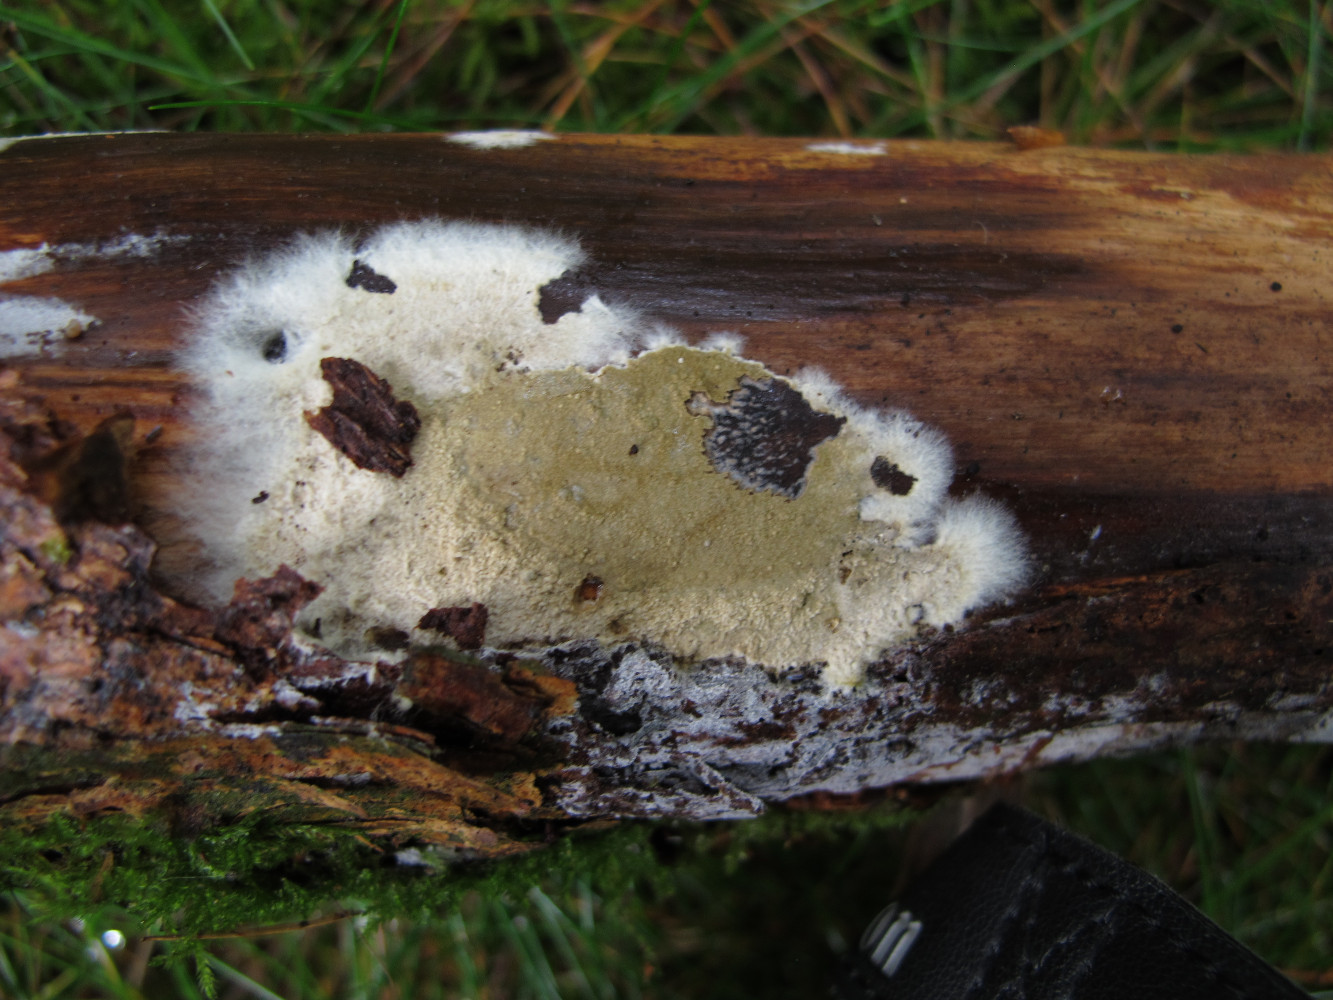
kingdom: Fungi
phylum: Basidiomycota
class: Agaricomycetes
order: Boletales
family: Coniophoraceae
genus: Coniophora
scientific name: Coniophora puteana
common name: gul tømmersvamp
